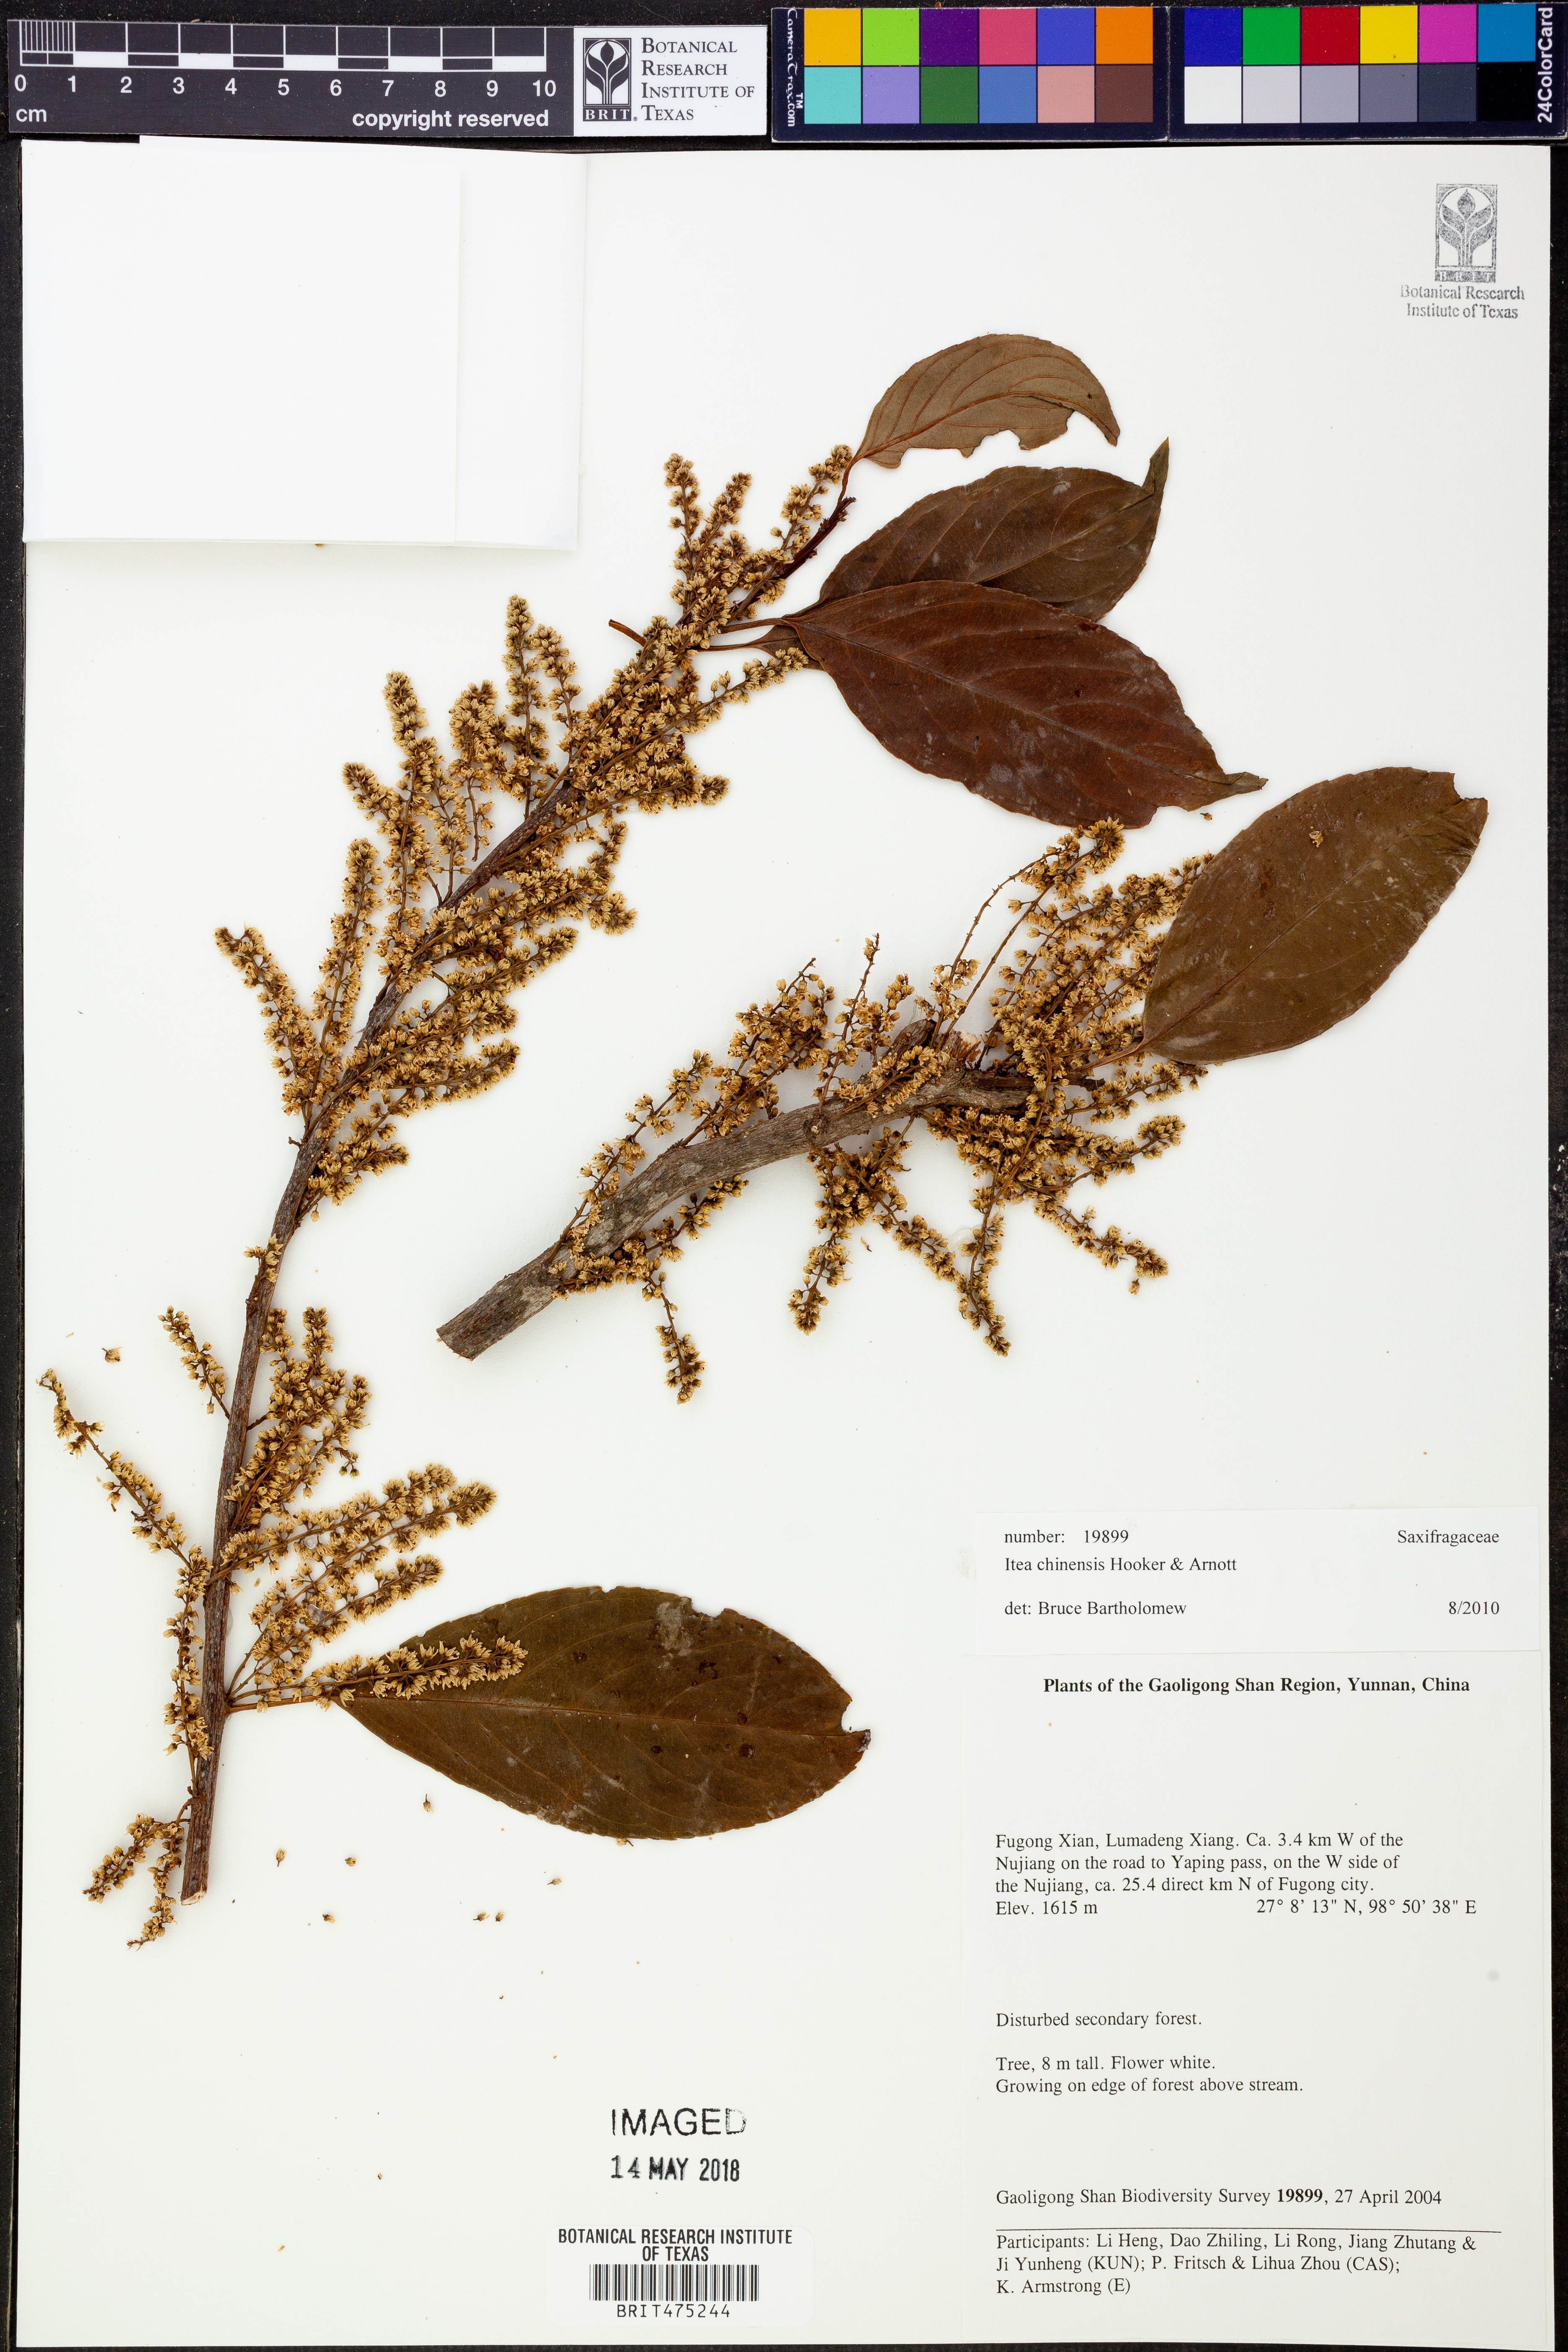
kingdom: Plantae
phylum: Tracheophyta
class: Magnoliopsida
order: Saxifragales
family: Iteaceae
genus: Itea
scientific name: Itea chinensis
